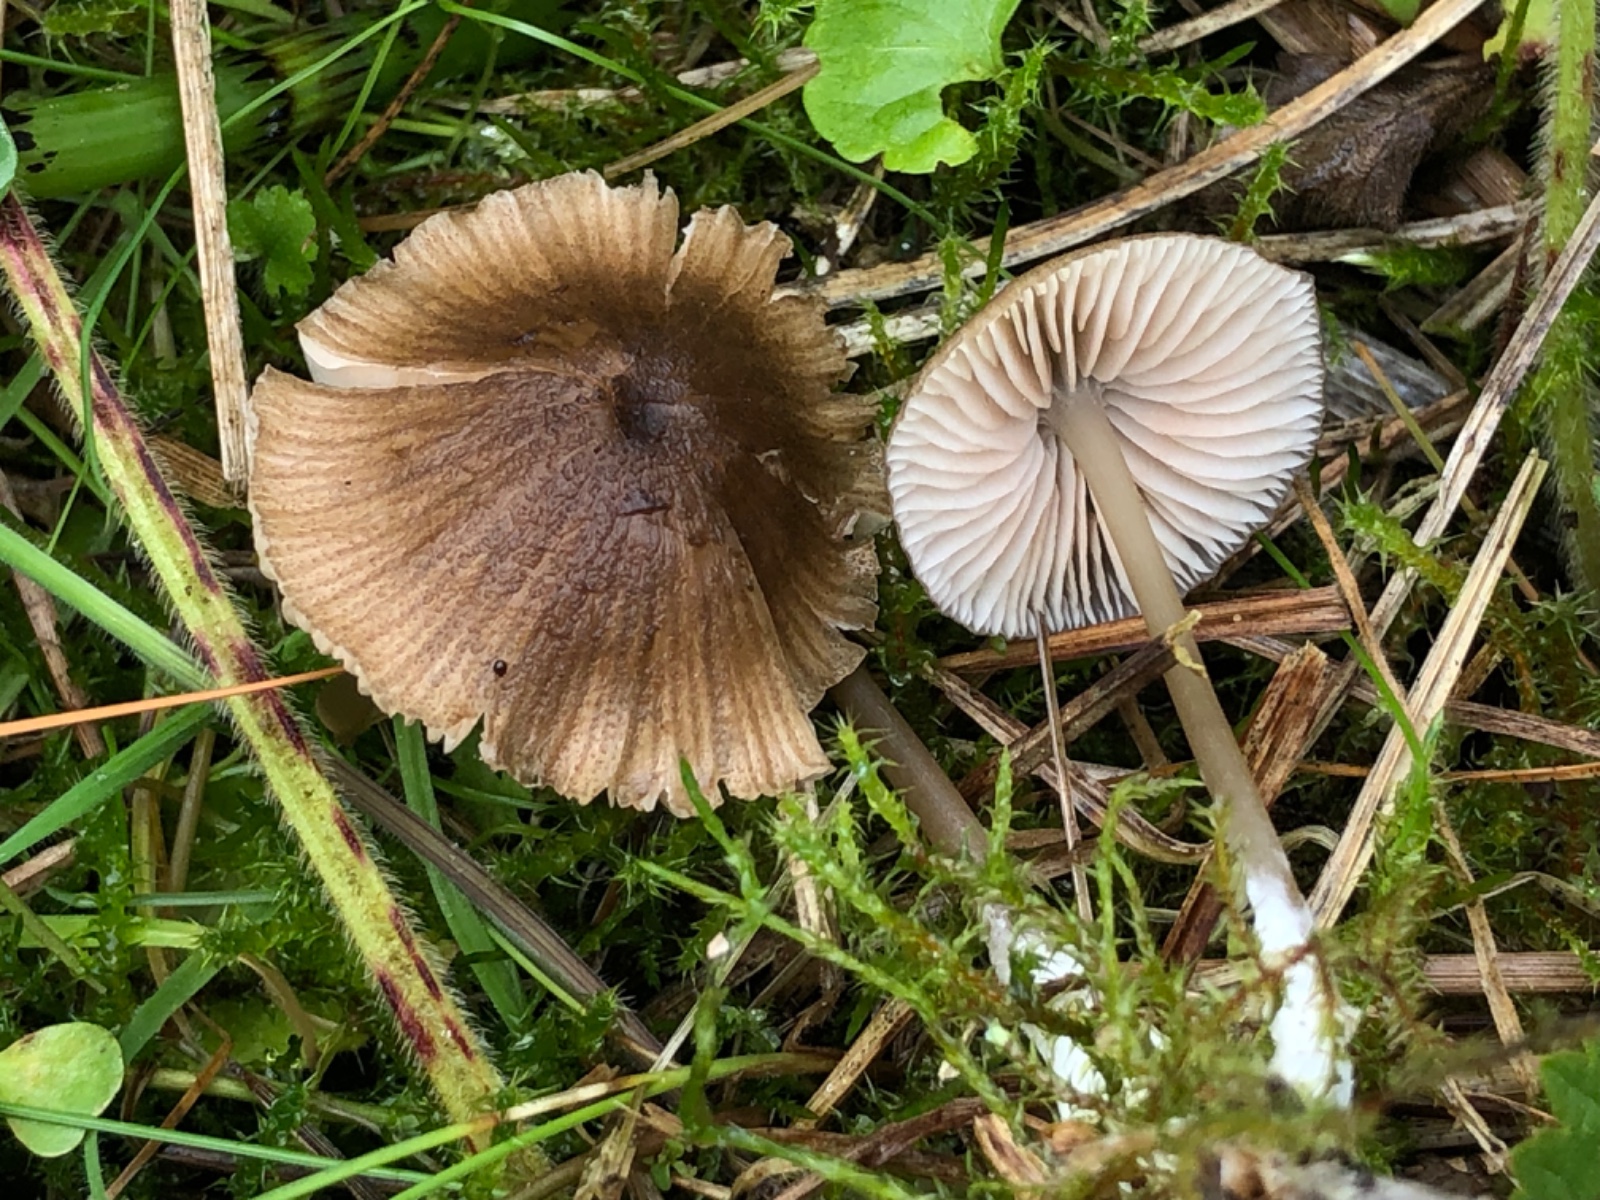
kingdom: Fungi
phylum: Basidiomycota
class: Agaricomycetes
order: Agaricales
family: Entolomataceae
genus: Entoloma
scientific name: Entoloma
